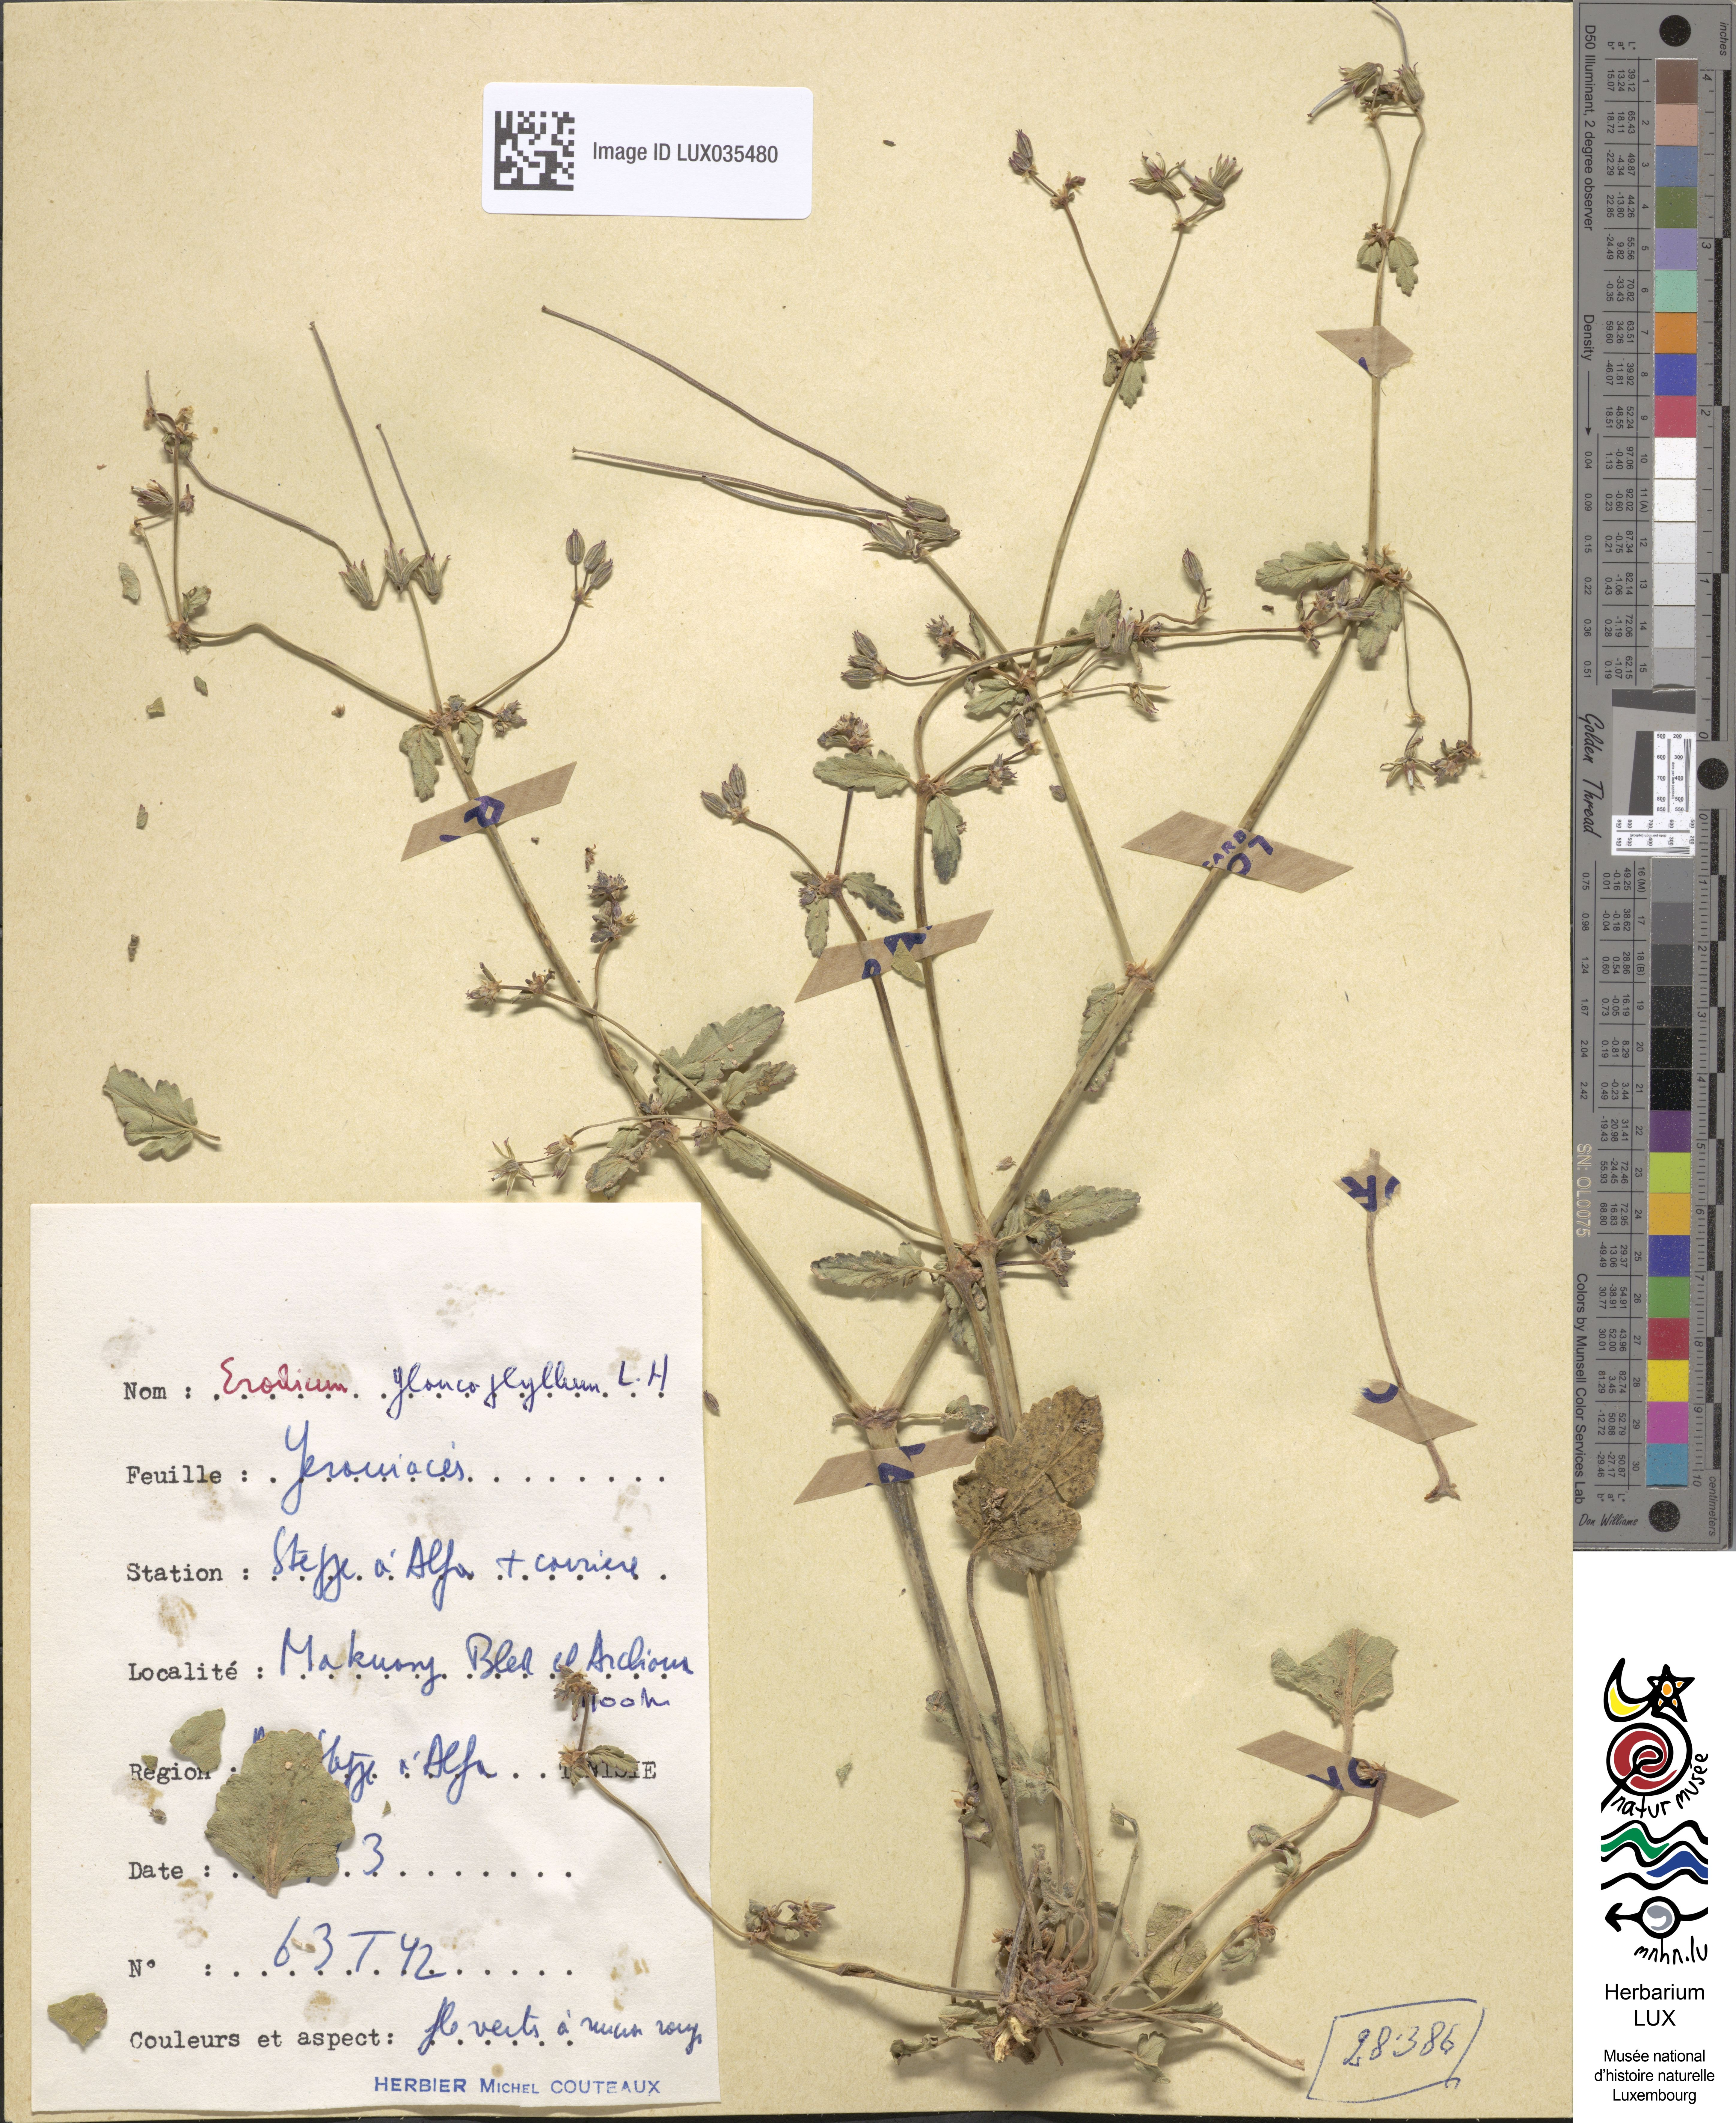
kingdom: Plantae
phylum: Tracheophyta
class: Magnoliopsida
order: Geraniales
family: Geraniaceae
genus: Erodium
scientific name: Erodium glaucophyllum
